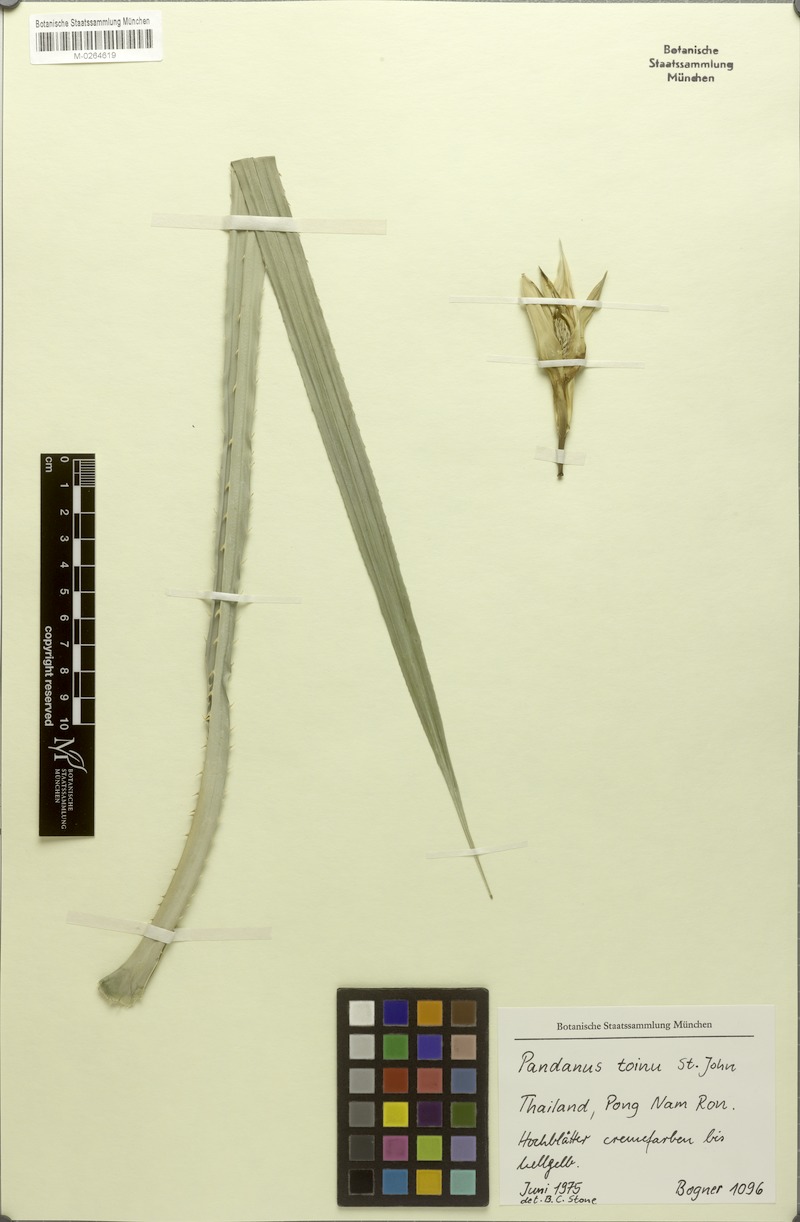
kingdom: Plantae
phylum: Tracheophyta
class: Liliopsida
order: Pandanales
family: Pandanaceae
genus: Benstonea
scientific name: Benstonea humilis
